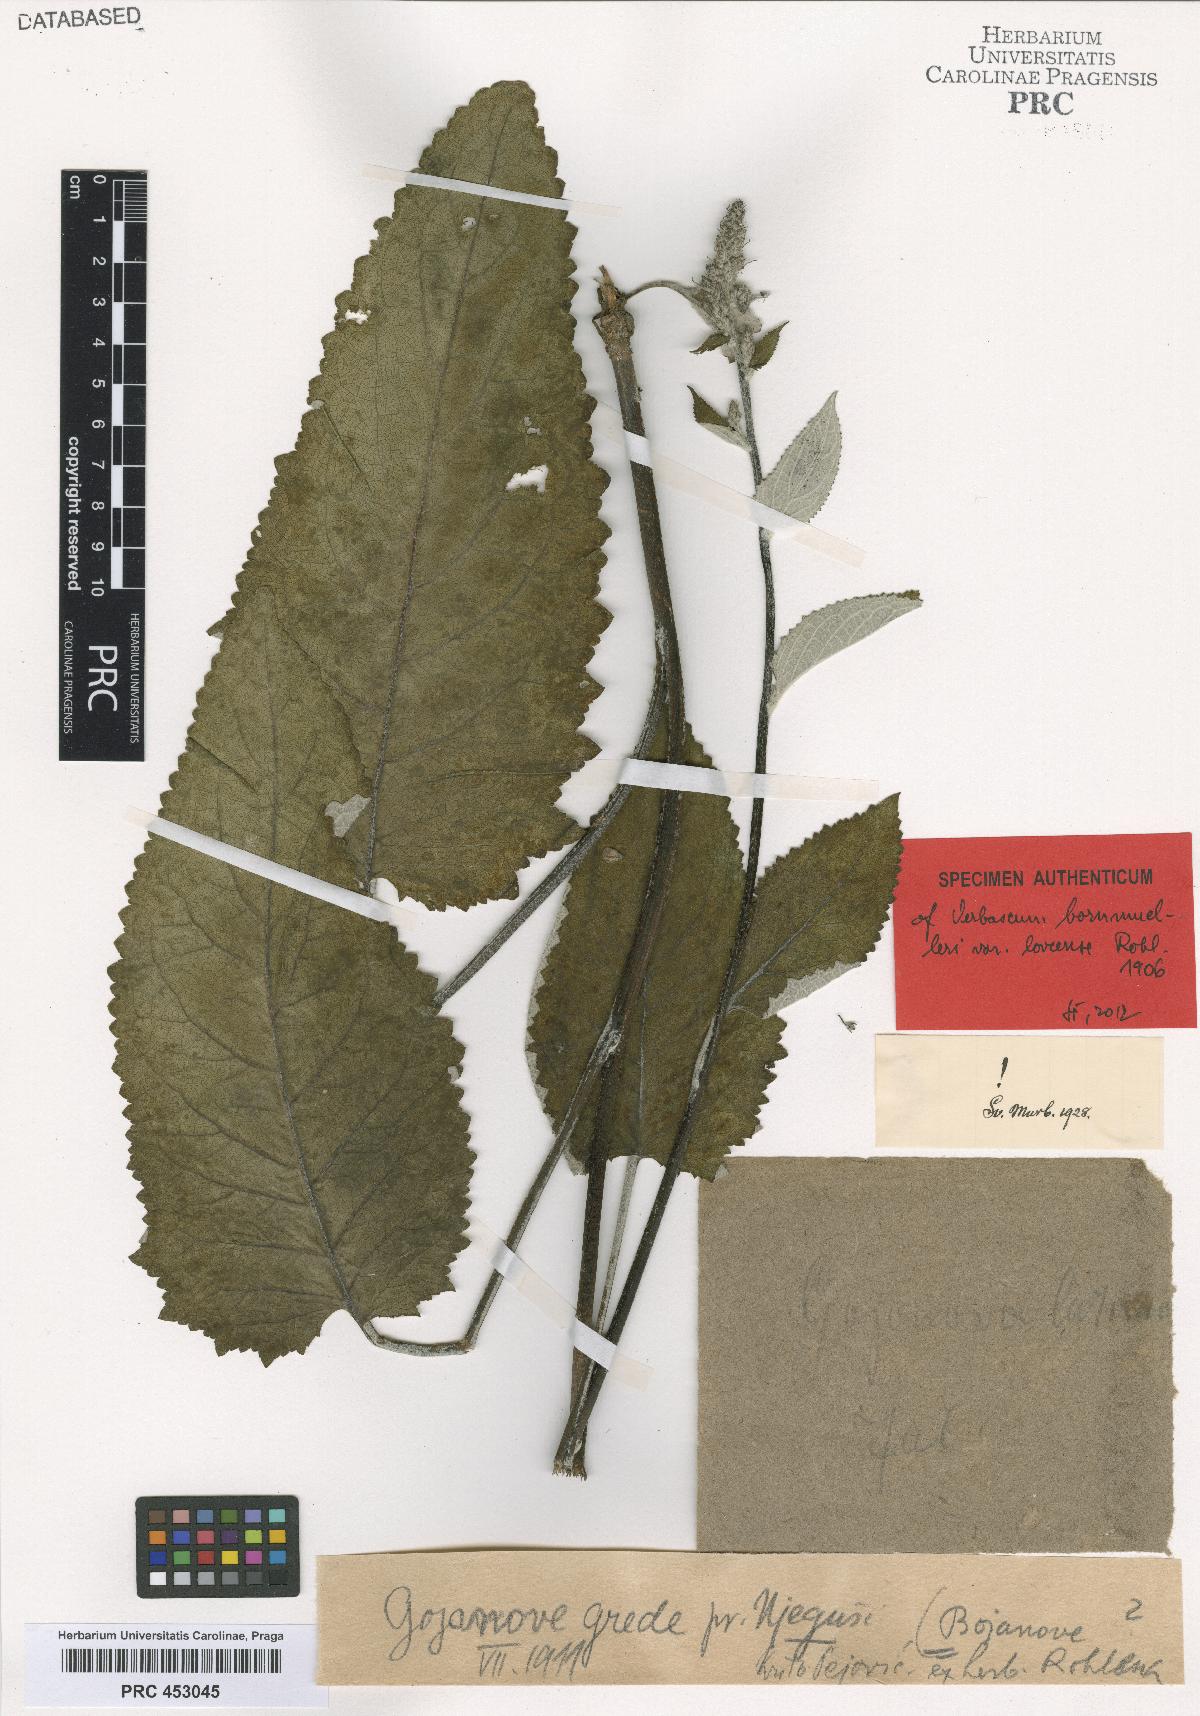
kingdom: Plantae
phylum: Tracheophyta
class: Magnoliopsida
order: Lamiales
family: Scrophulariaceae
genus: Verbascum
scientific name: Verbascum nigrum
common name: Dark mullein
